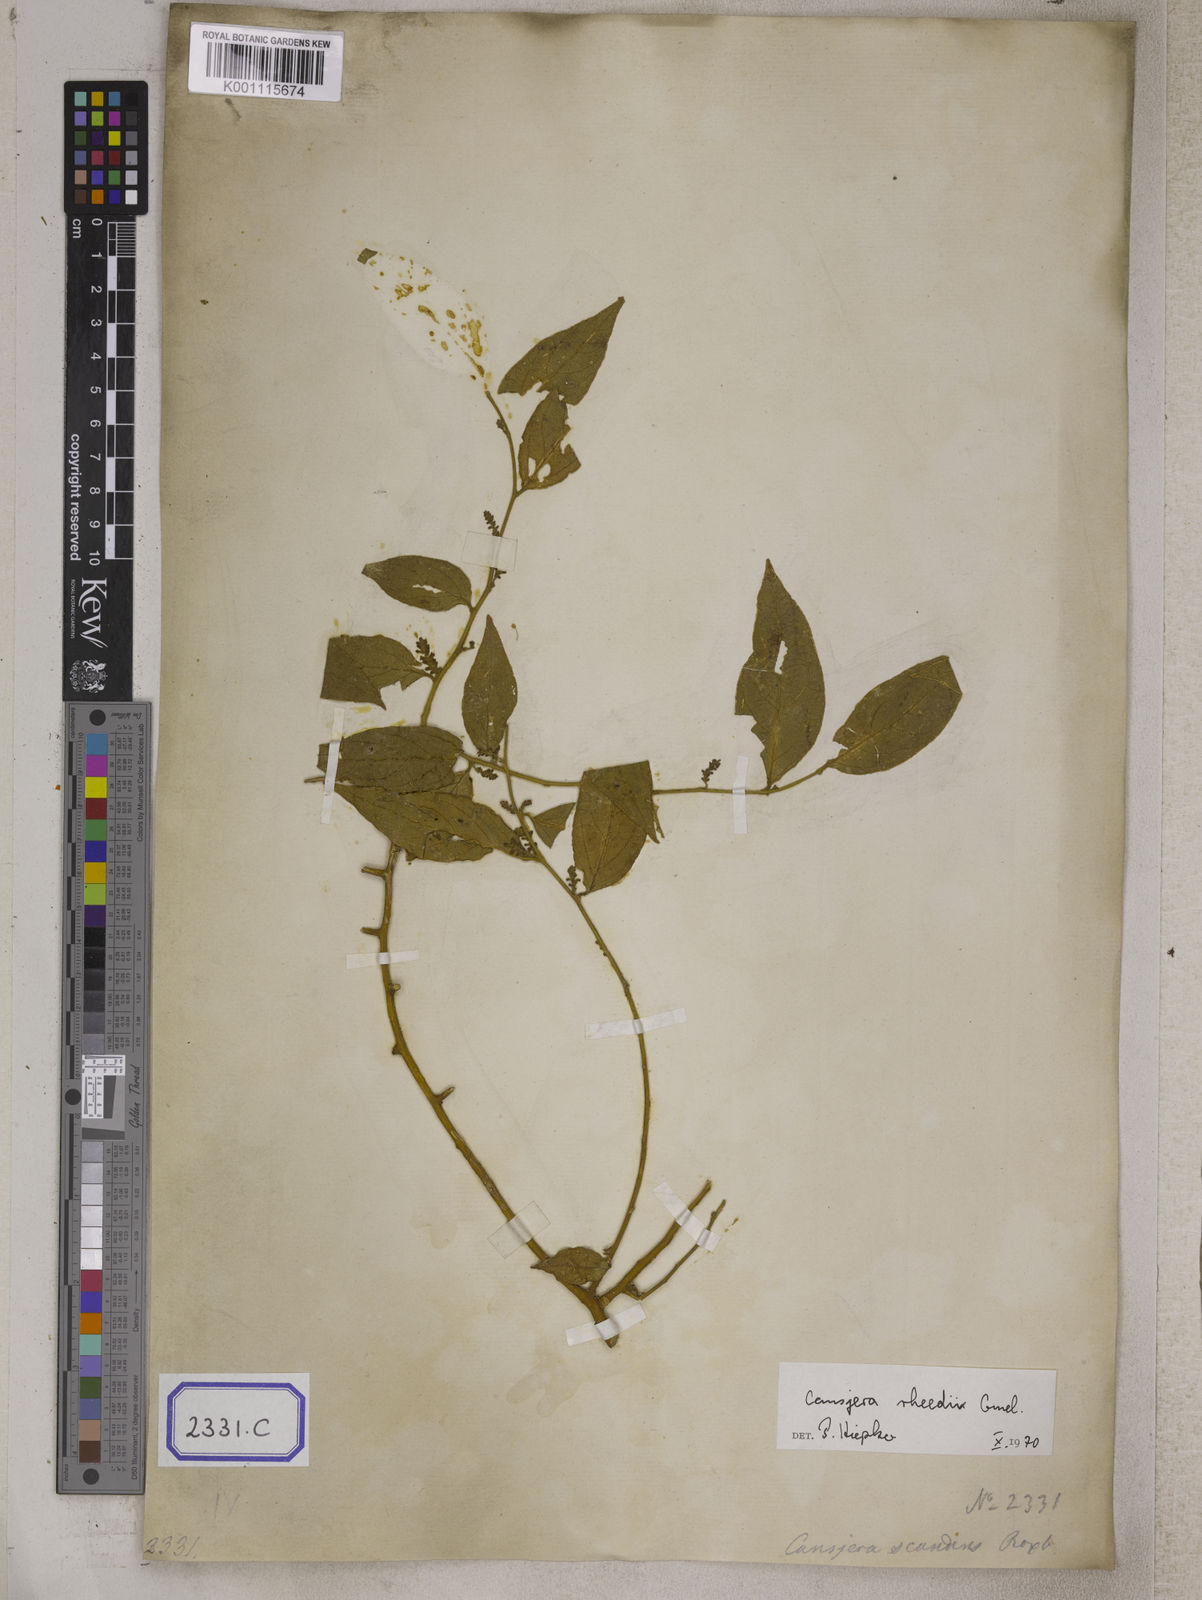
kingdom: Plantae
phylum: Tracheophyta
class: Magnoliopsida
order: Santalales
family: Opiliaceae
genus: Opilia
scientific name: Opilia amentacea
